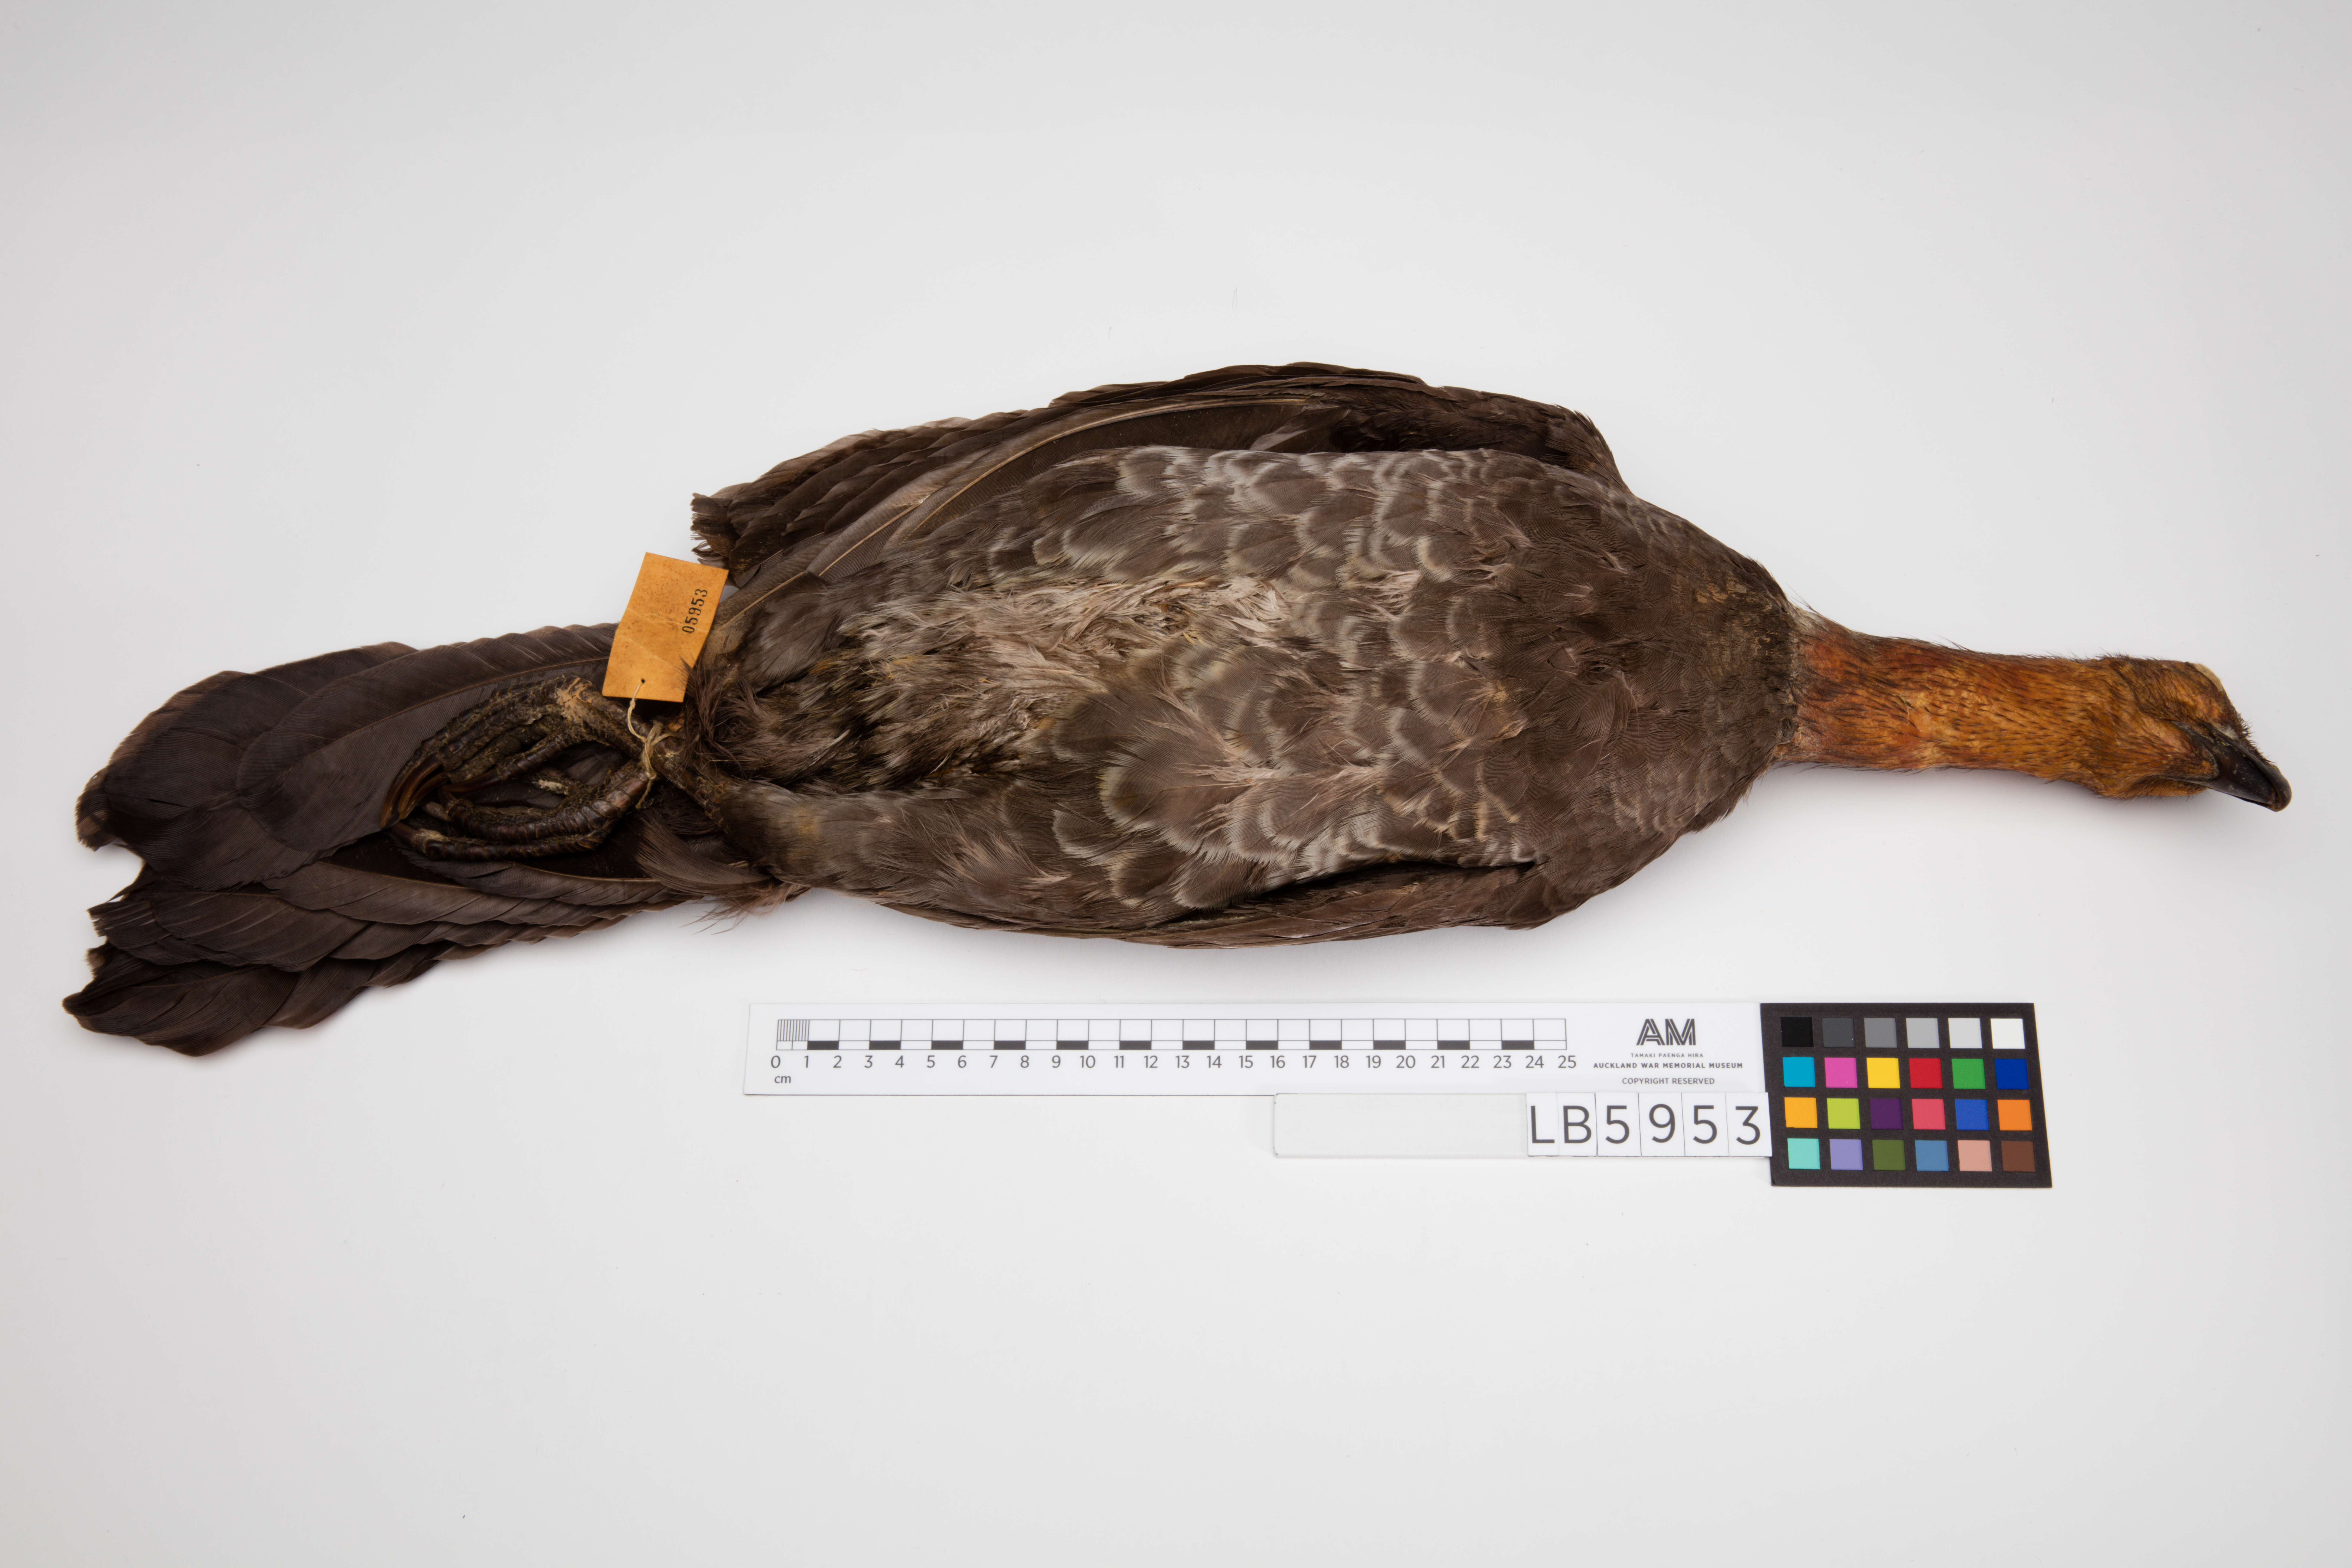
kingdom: Animalia
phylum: Chordata
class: Aves
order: Galliformes
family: Megapodiidae
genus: Alectura
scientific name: Alectura lathami
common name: Australian brushturkey
